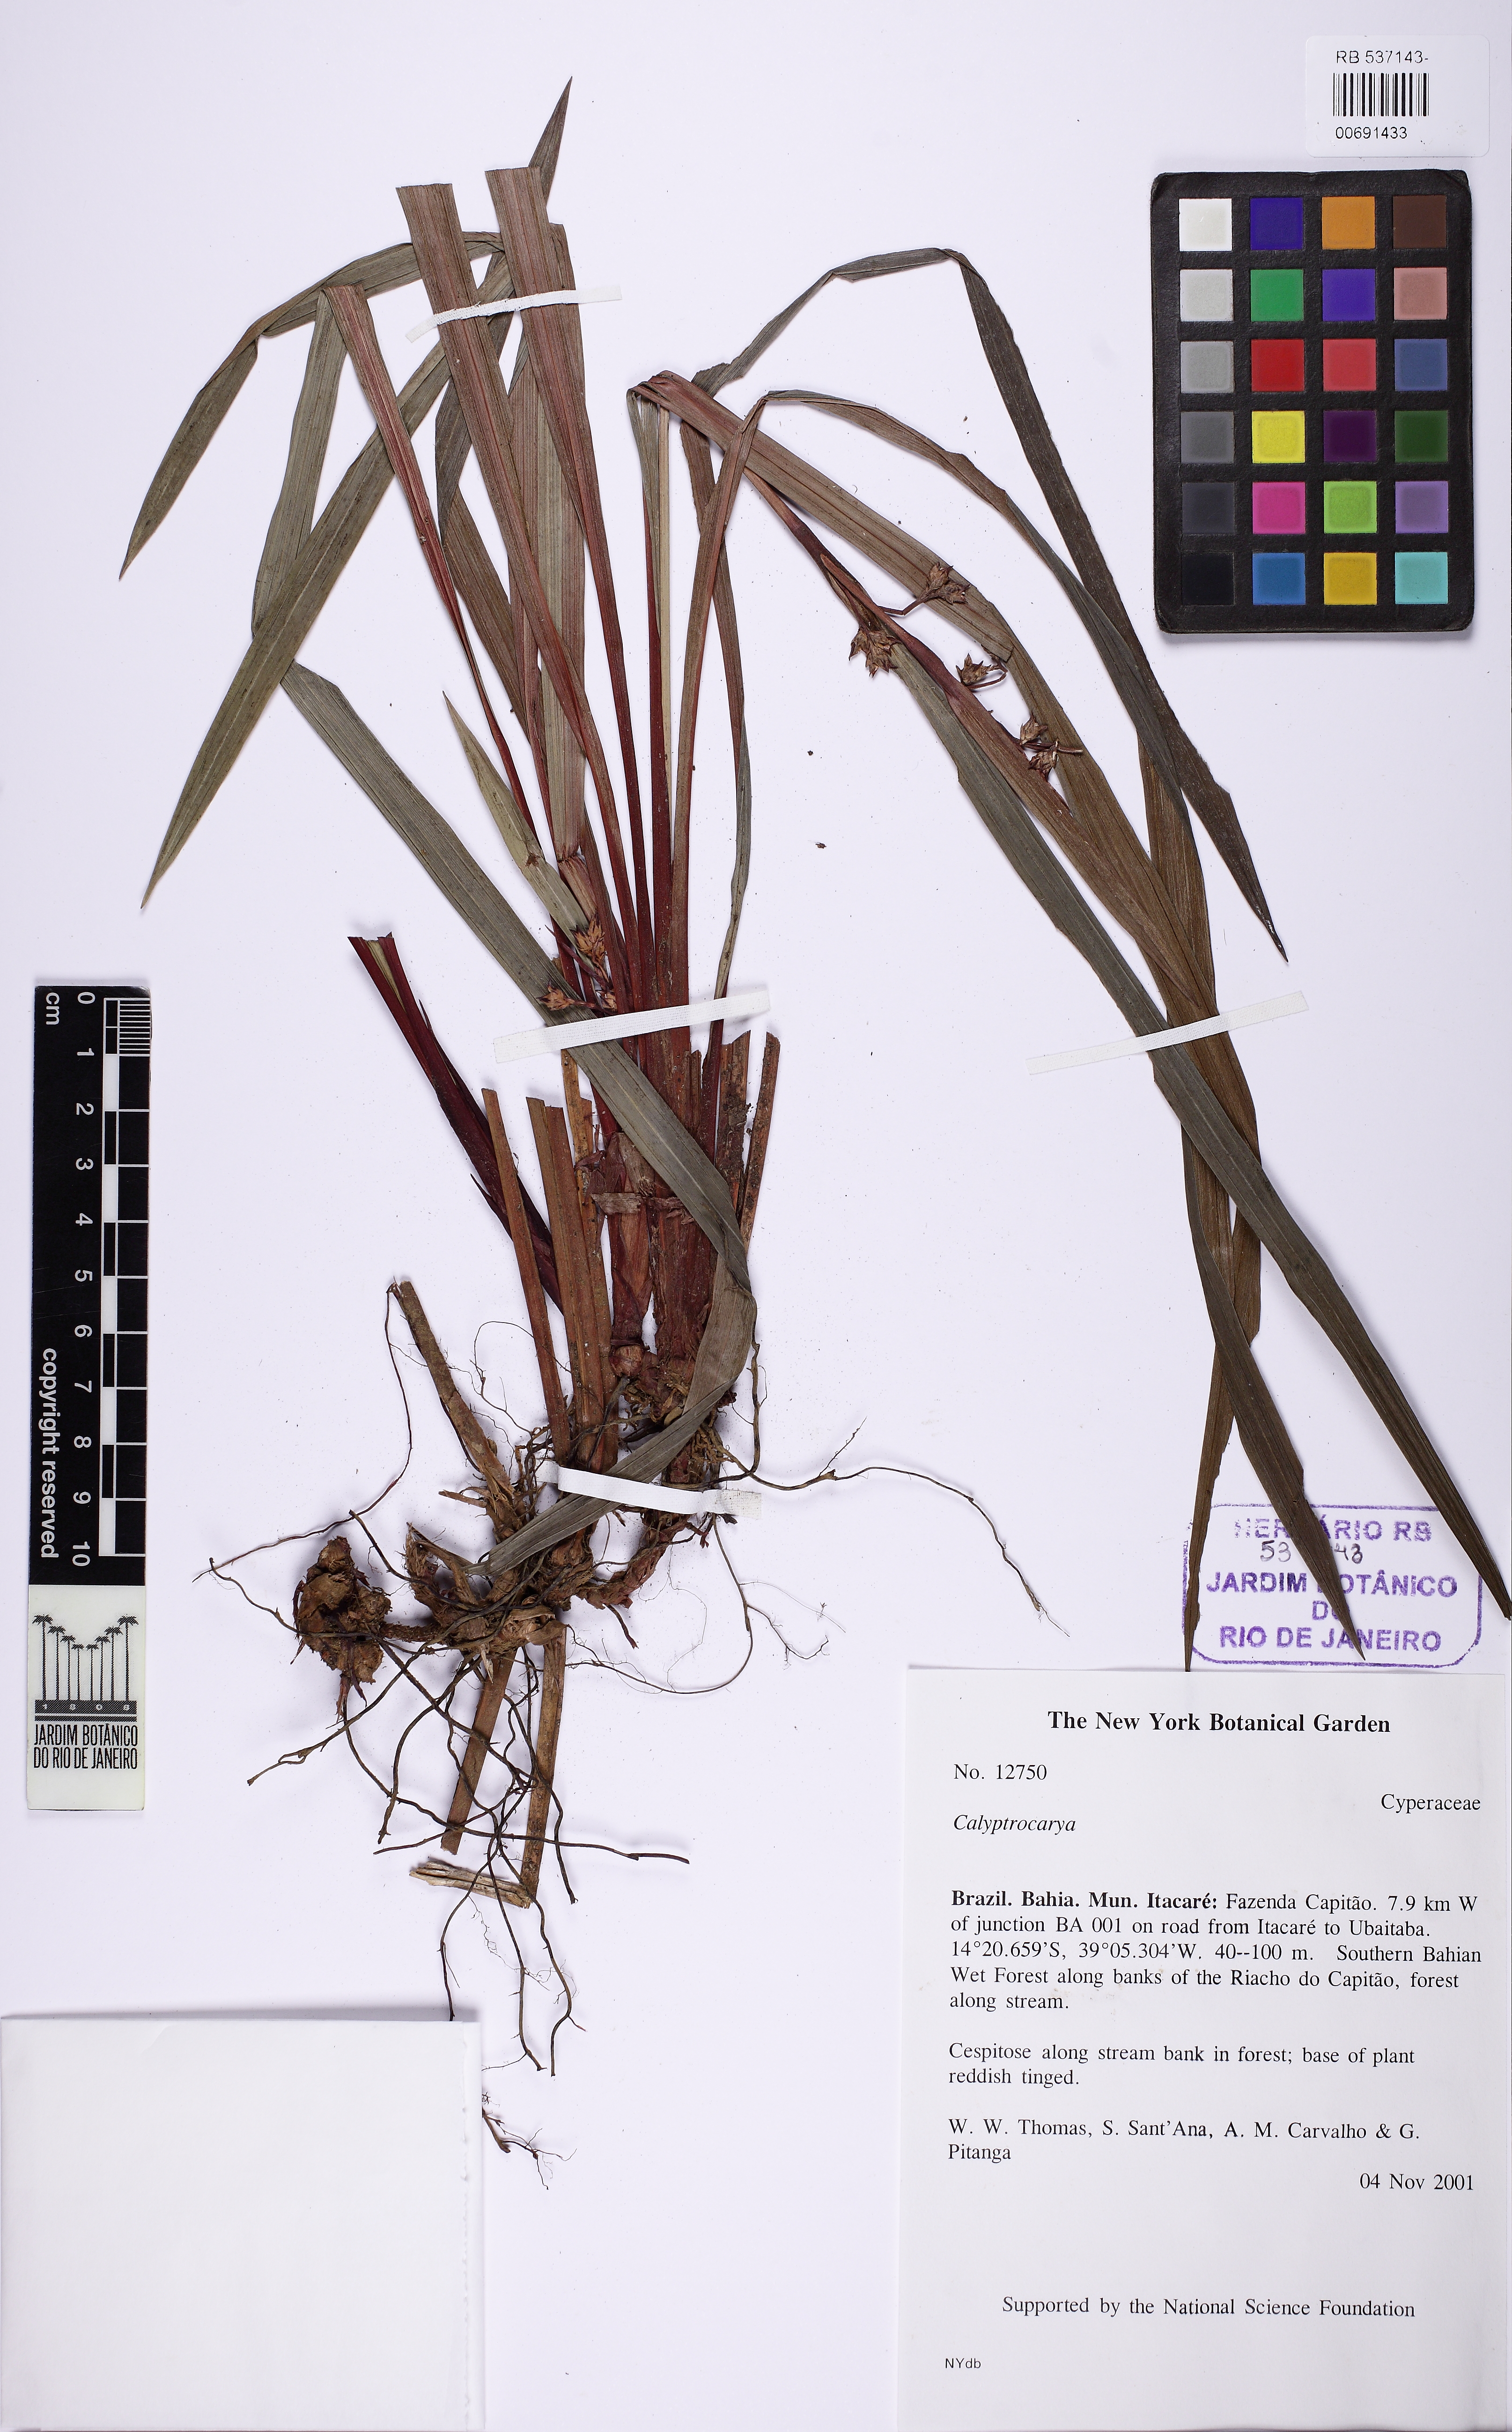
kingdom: Plantae
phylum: Tracheophyta
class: Liliopsida
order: Poales
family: Cyperaceae
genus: Becquerelia
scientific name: Becquerelia discolor
